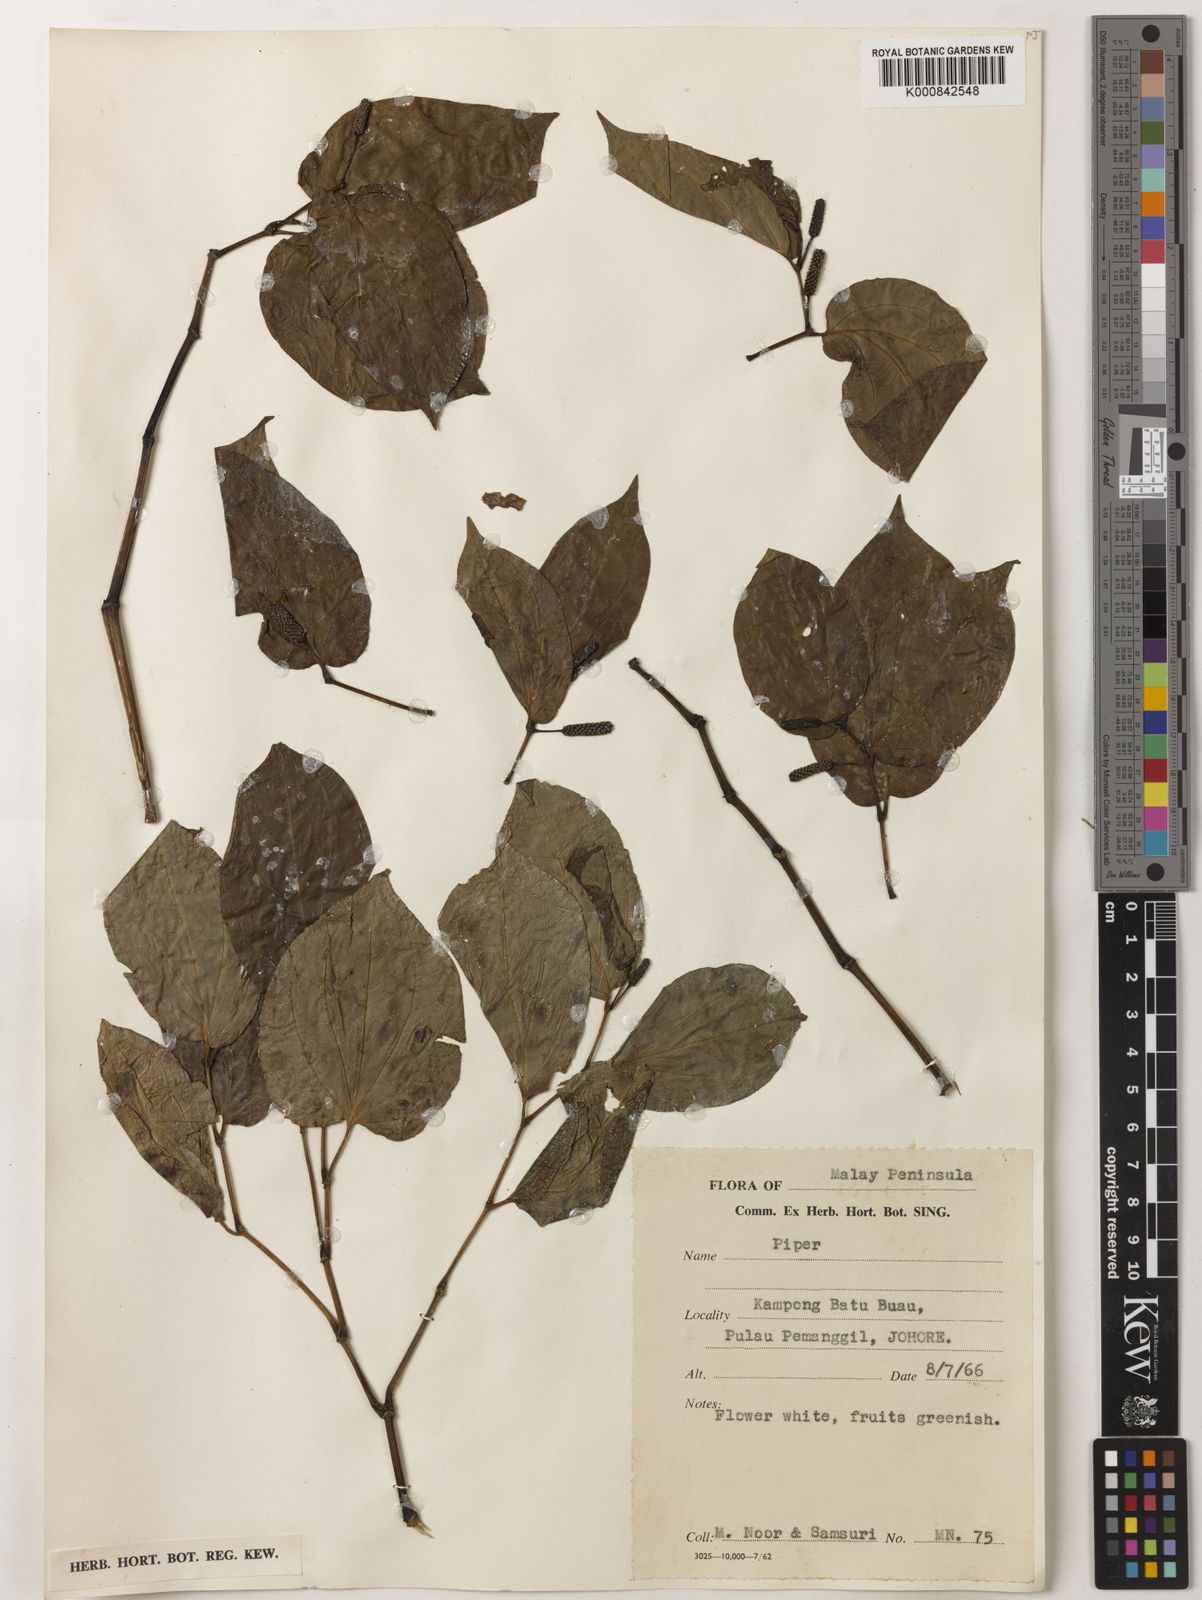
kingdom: Plantae
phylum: Tracheophyta
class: Magnoliopsida
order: Piperales
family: Piperaceae
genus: Piper
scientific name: Piper
